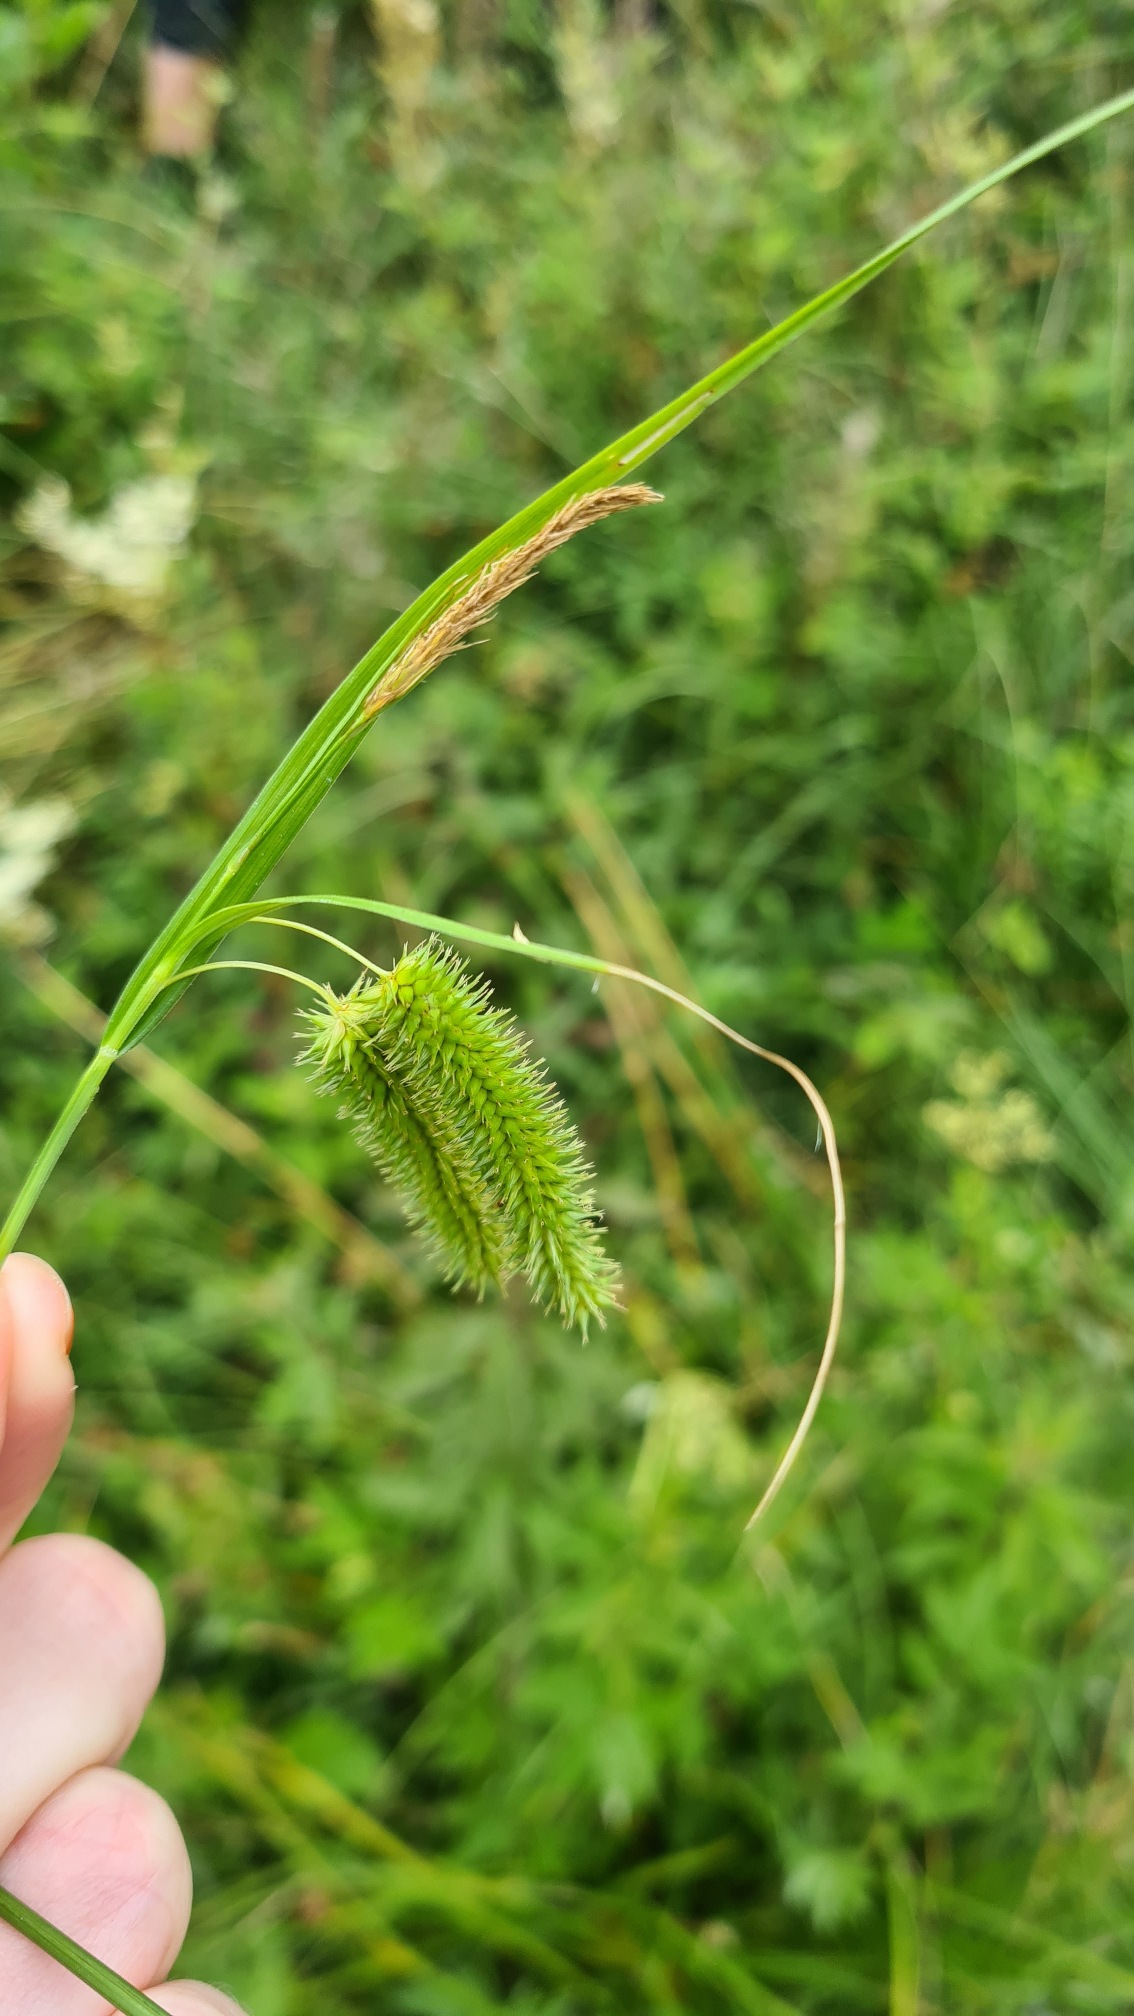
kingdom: Plantae
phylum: Tracheophyta
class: Liliopsida
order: Poales
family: Cyperaceae
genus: Carex
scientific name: Carex pseudocyperus
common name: Knippe-star
